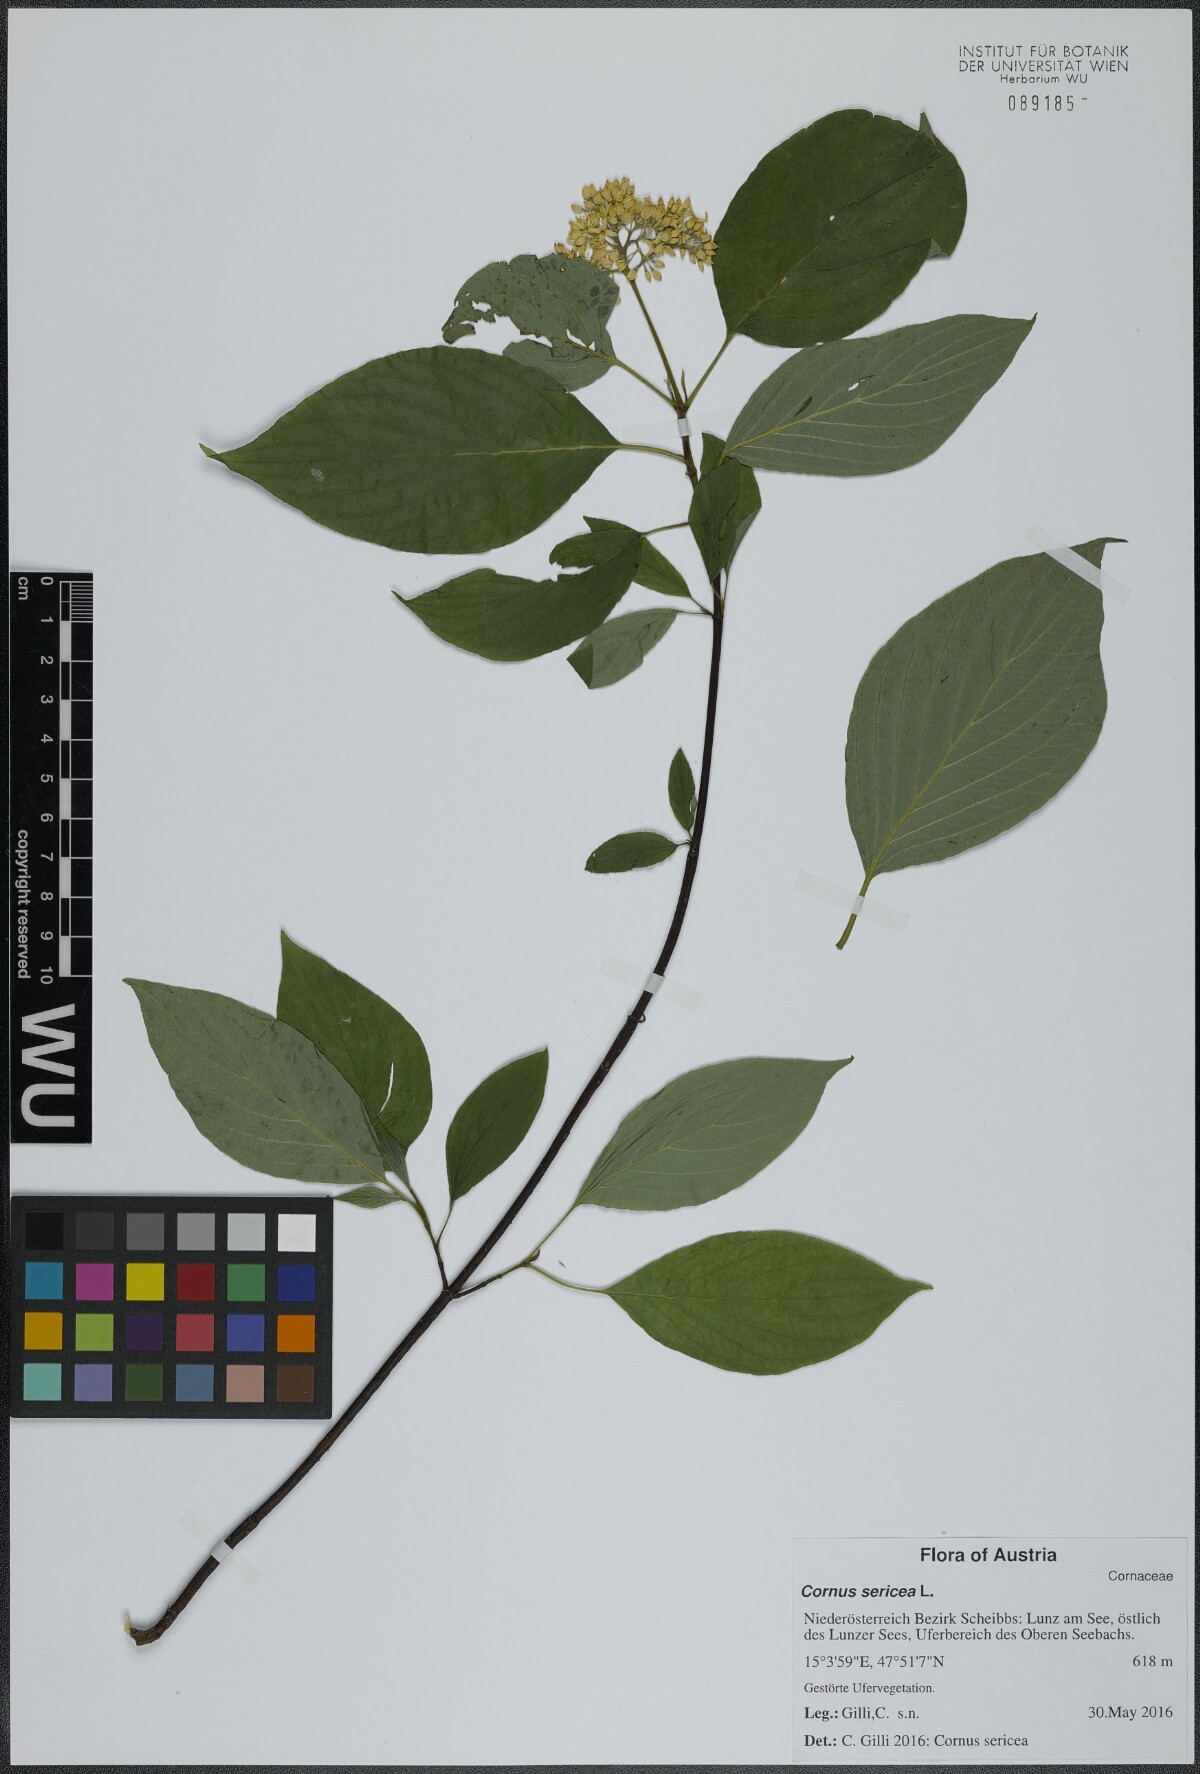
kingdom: Plantae
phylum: Tracheophyta
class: Magnoliopsida
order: Cornales
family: Cornaceae
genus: Cornus
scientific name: Cornus sericea
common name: Red-osier dogwood
